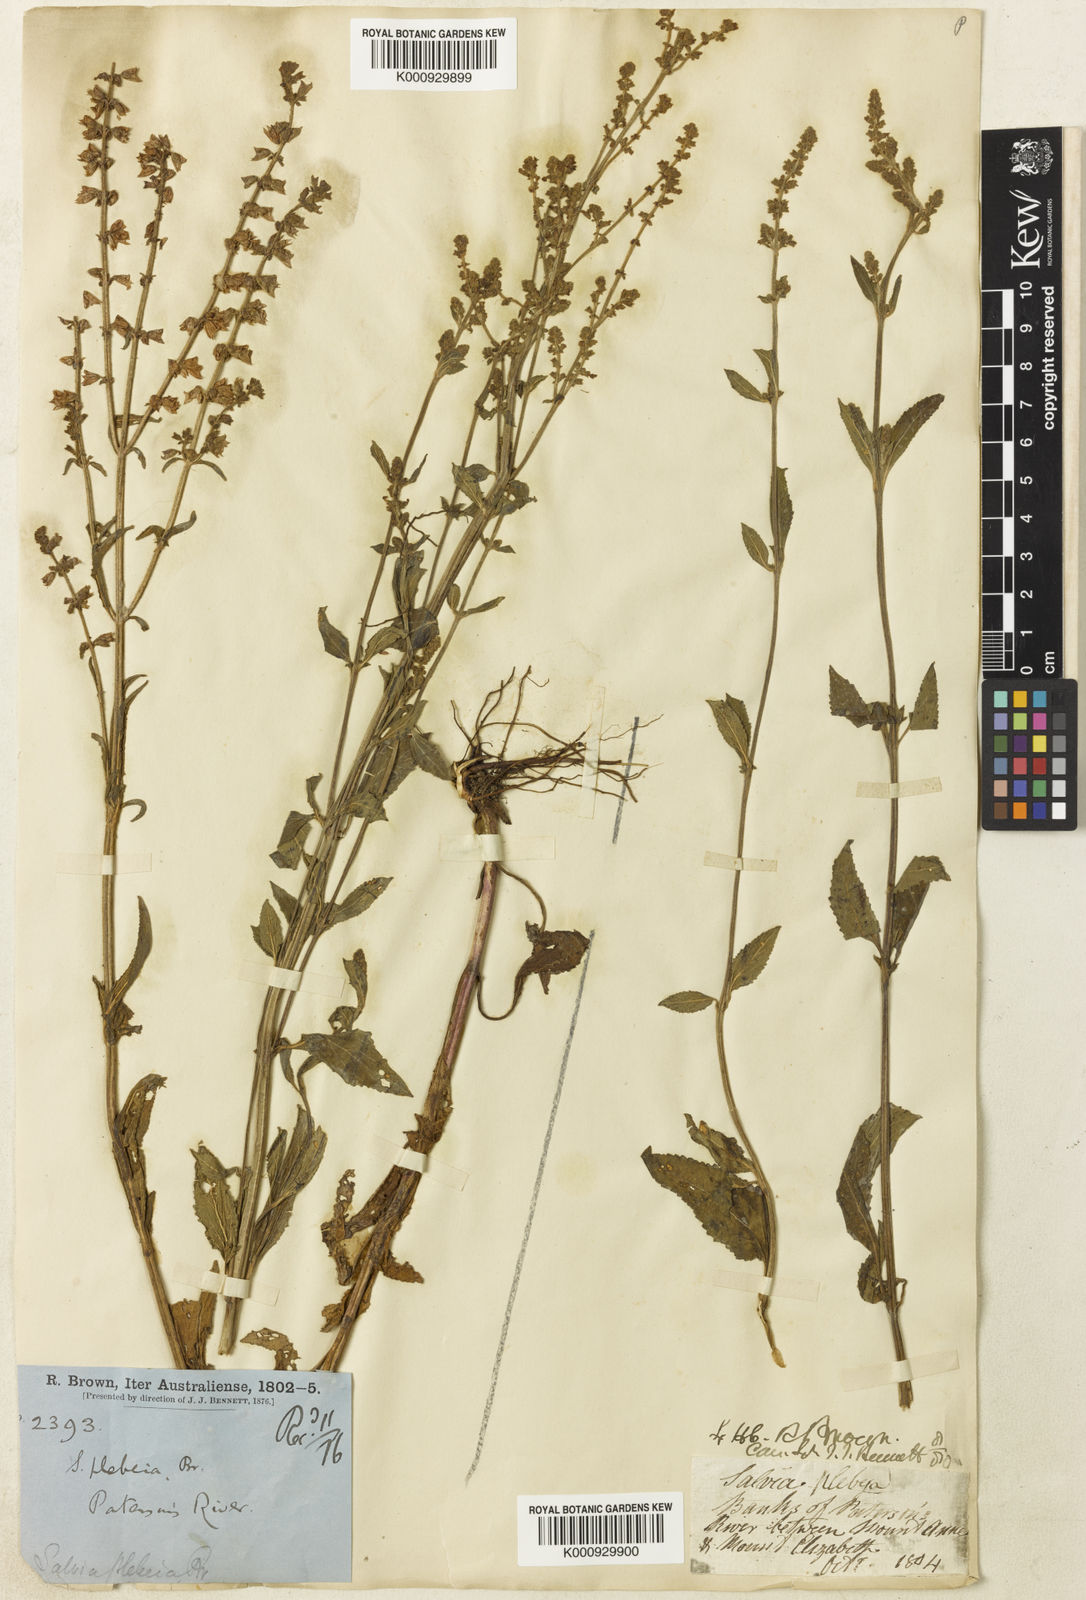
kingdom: Plantae
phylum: Tracheophyta
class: Magnoliopsida
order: Lamiales
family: Lamiaceae
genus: Salvia
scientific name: Salvia plebeia
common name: Australian sage
